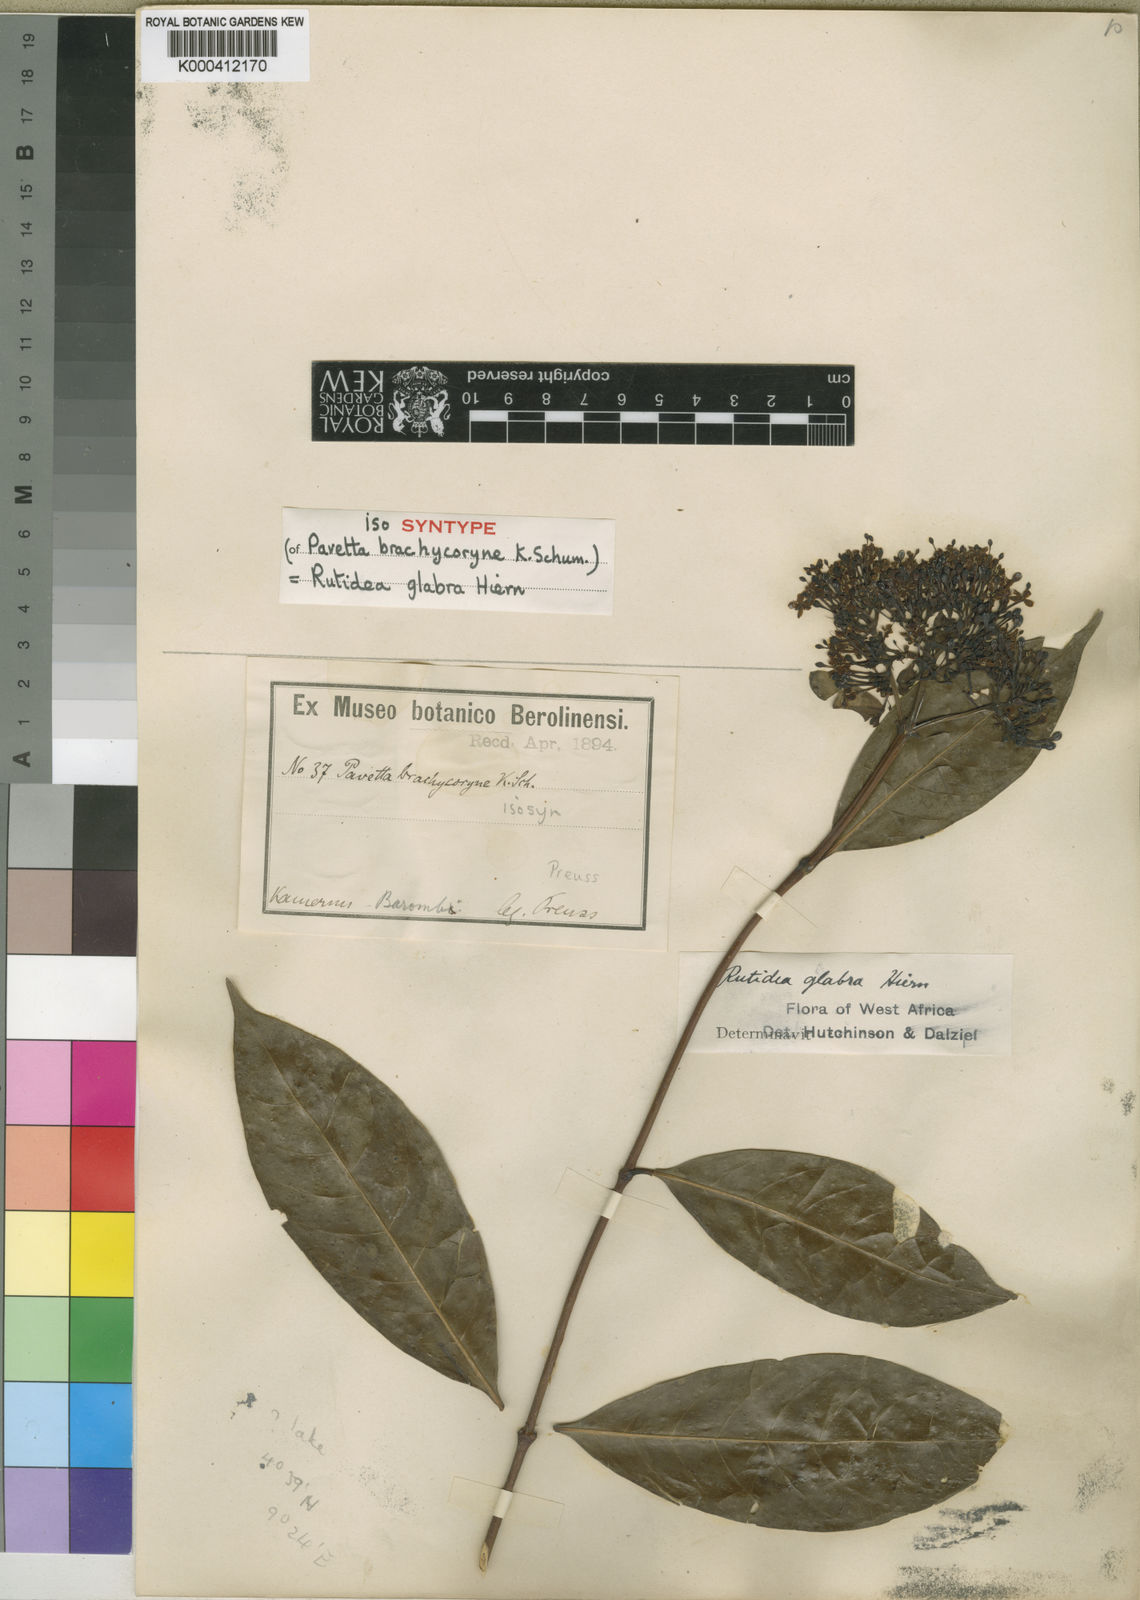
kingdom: Plantae
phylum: Tracheophyta
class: Magnoliopsida
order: Gentianales
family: Rubiaceae
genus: Rutidea
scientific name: Rutidea glabra
